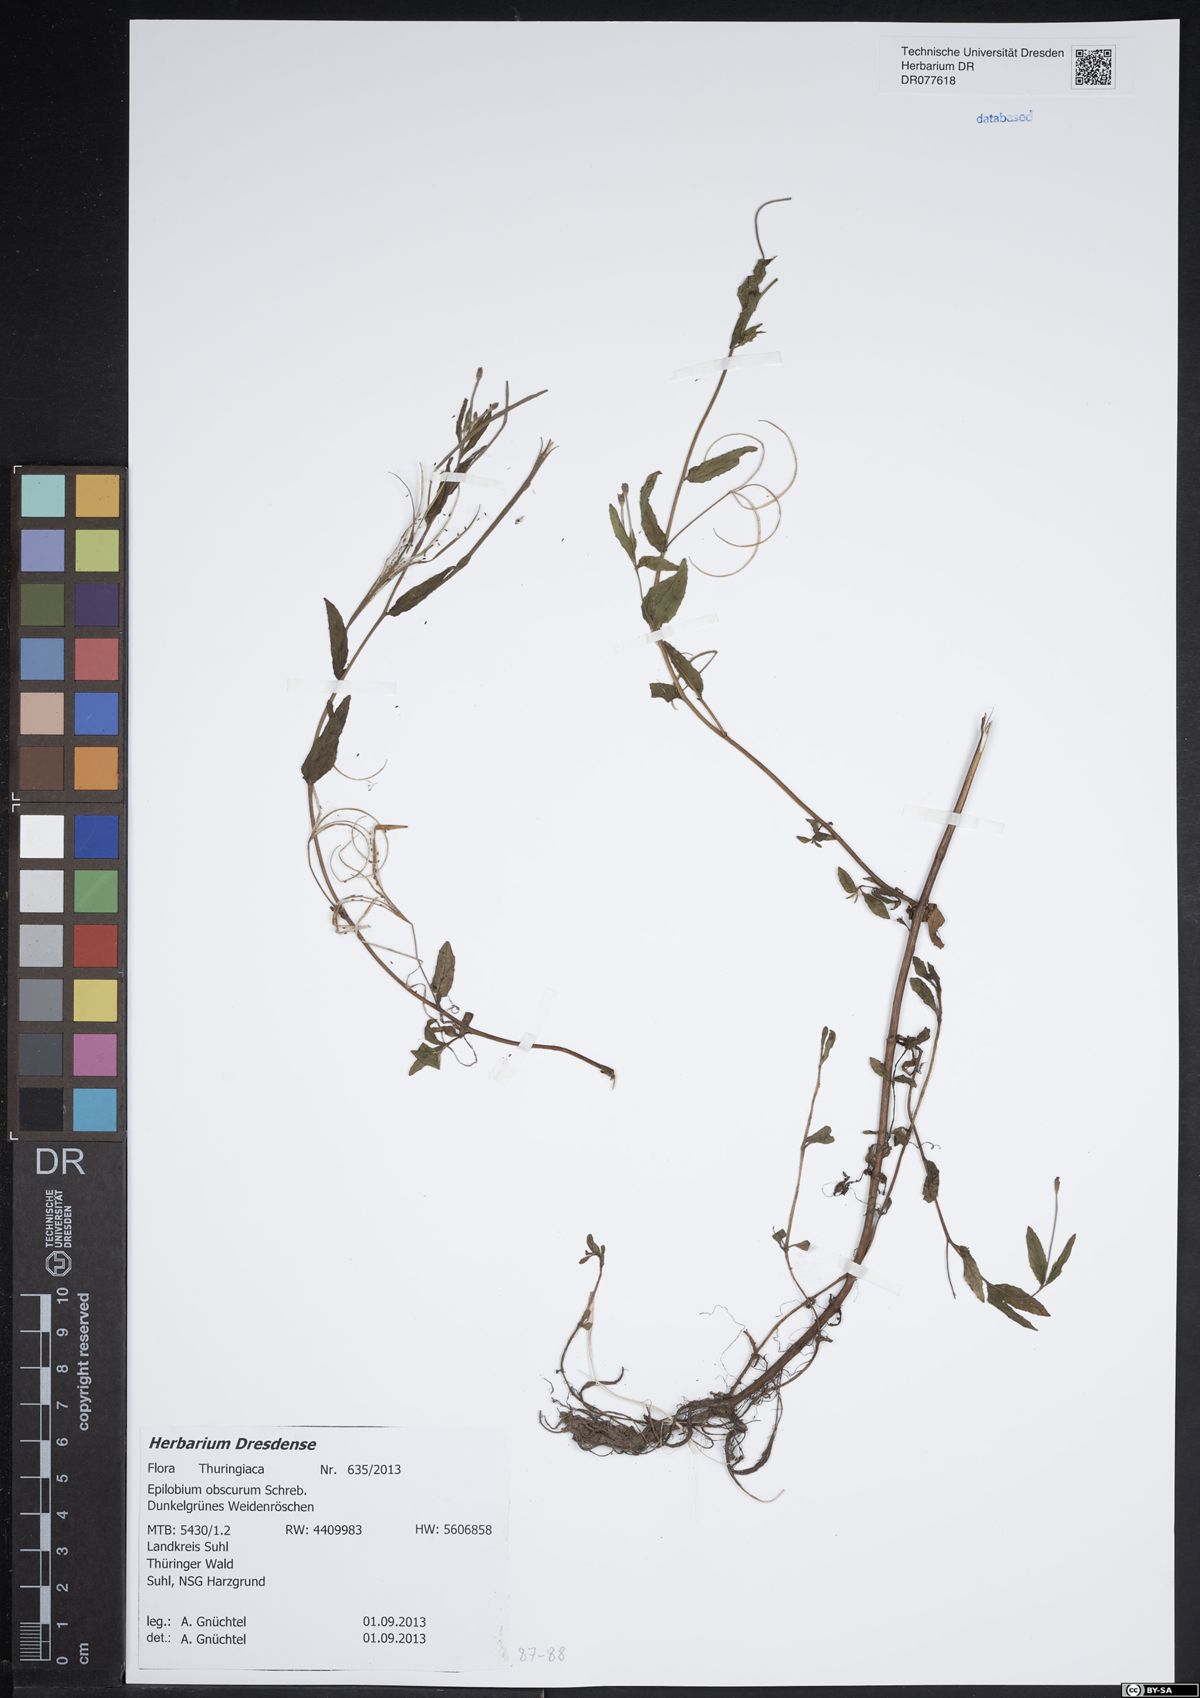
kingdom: Plantae
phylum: Tracheophyta
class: Magnoliopsida
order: Myrtales
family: Onagraceae
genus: Epilobium
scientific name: Epilobium obscurum
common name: Short-fruited willowherb
